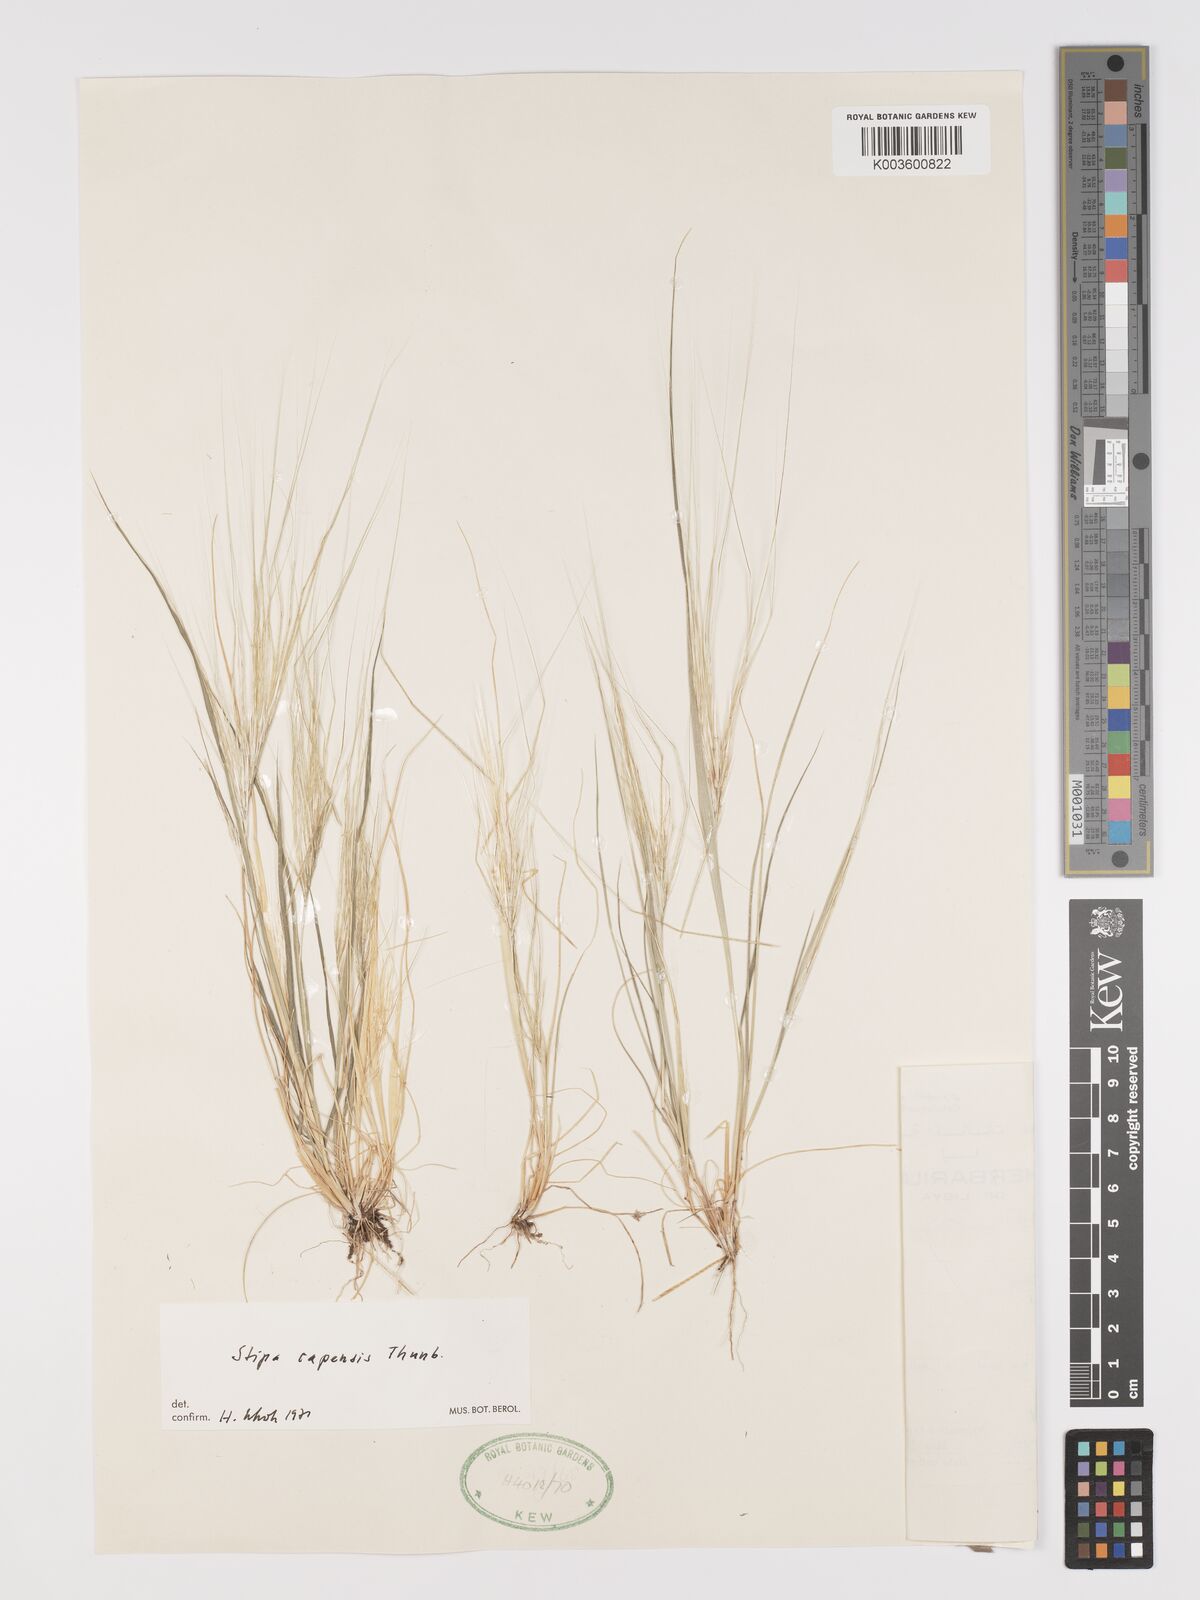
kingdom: Plantae
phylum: Tracheophyta
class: Liliopsida
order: Poales
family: Poaceae
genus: Stipellula
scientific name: Stipellula capensis
